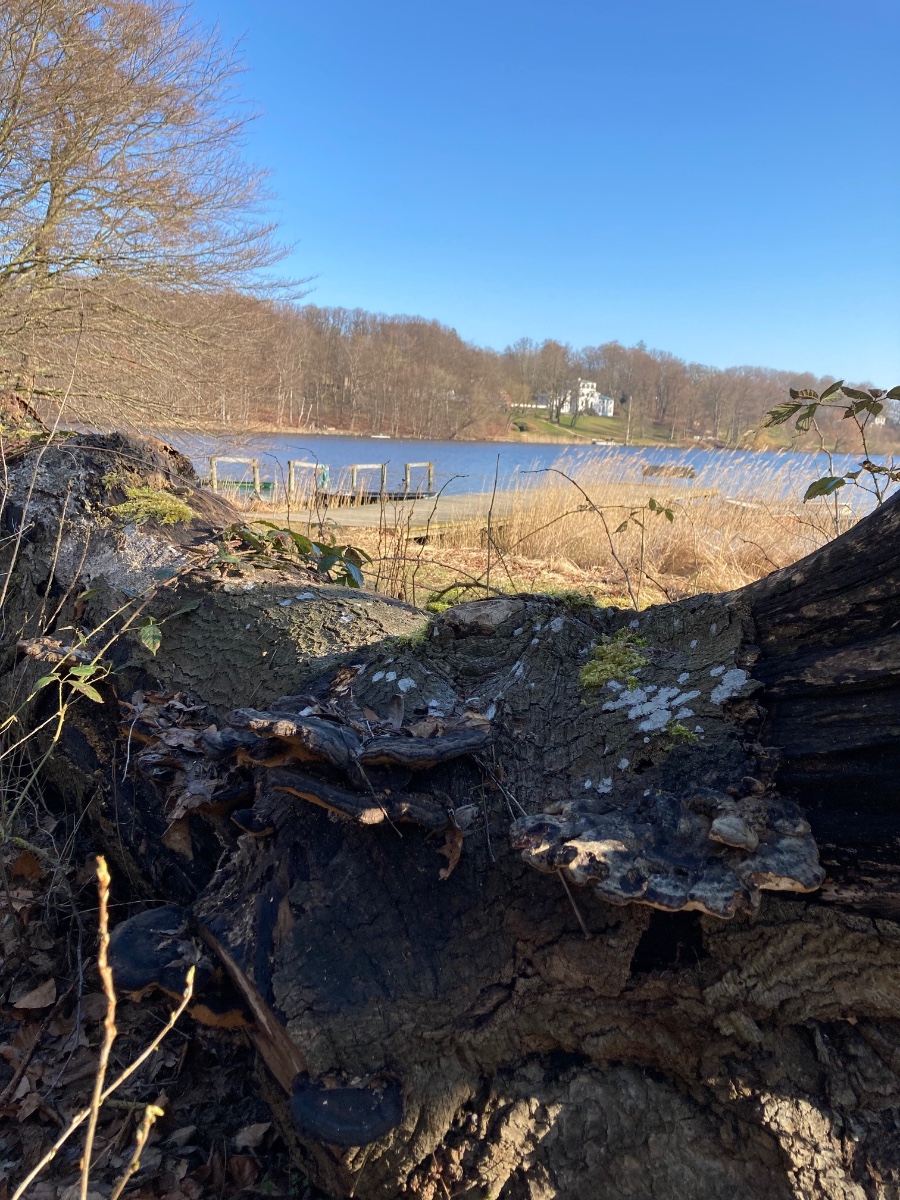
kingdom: Fungi
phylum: Basidiomycota
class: Agaricomycetes
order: Polyporales
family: Ischnodermataceae
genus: Ischnoderma
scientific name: Ischnoderma resinosum
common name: løv-tjæreporesvamp
